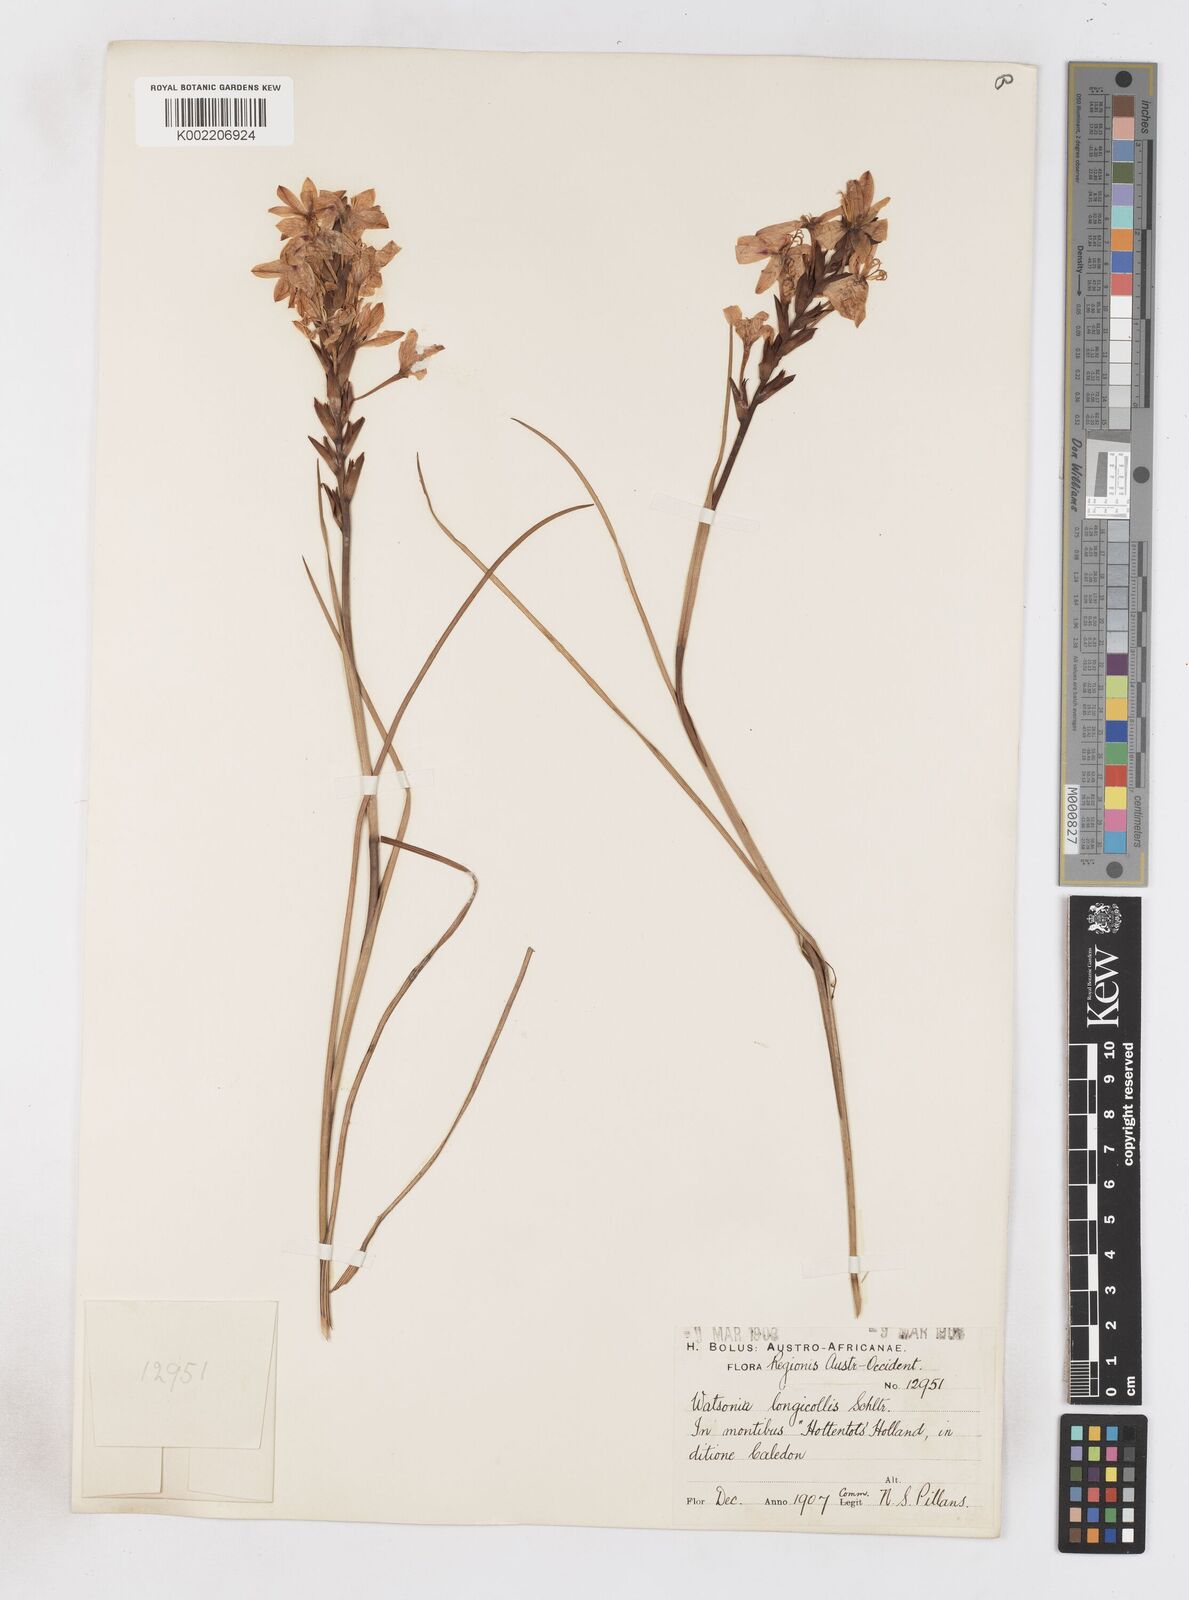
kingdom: Plantae
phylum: Tracheophyta
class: Magnoliopsida
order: Lamiales
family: Acanthaceae
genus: Phaulopsis
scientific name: Phaulopsis barteri
